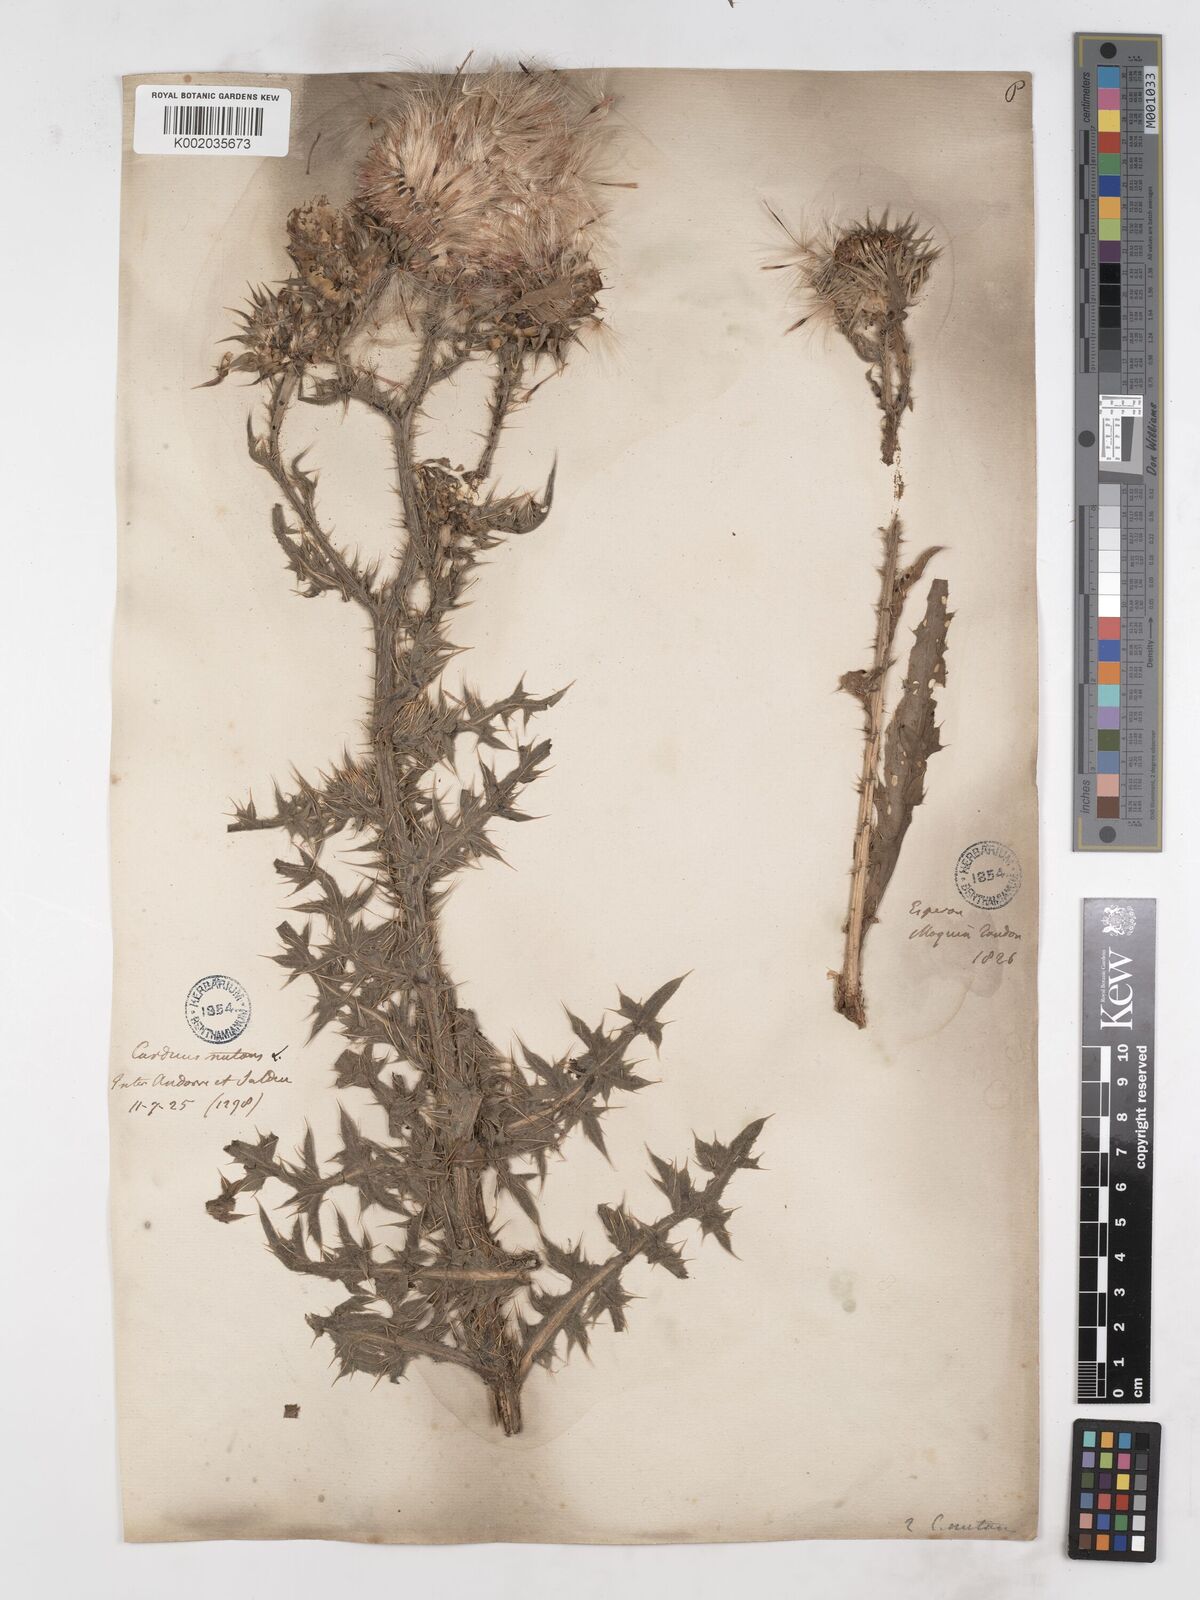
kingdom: Plantae
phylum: Tracheophyta
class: Magnoliopsida
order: Asterales
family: Asteraceae
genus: Carduus
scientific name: Carduus nutans
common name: Musk thistle
